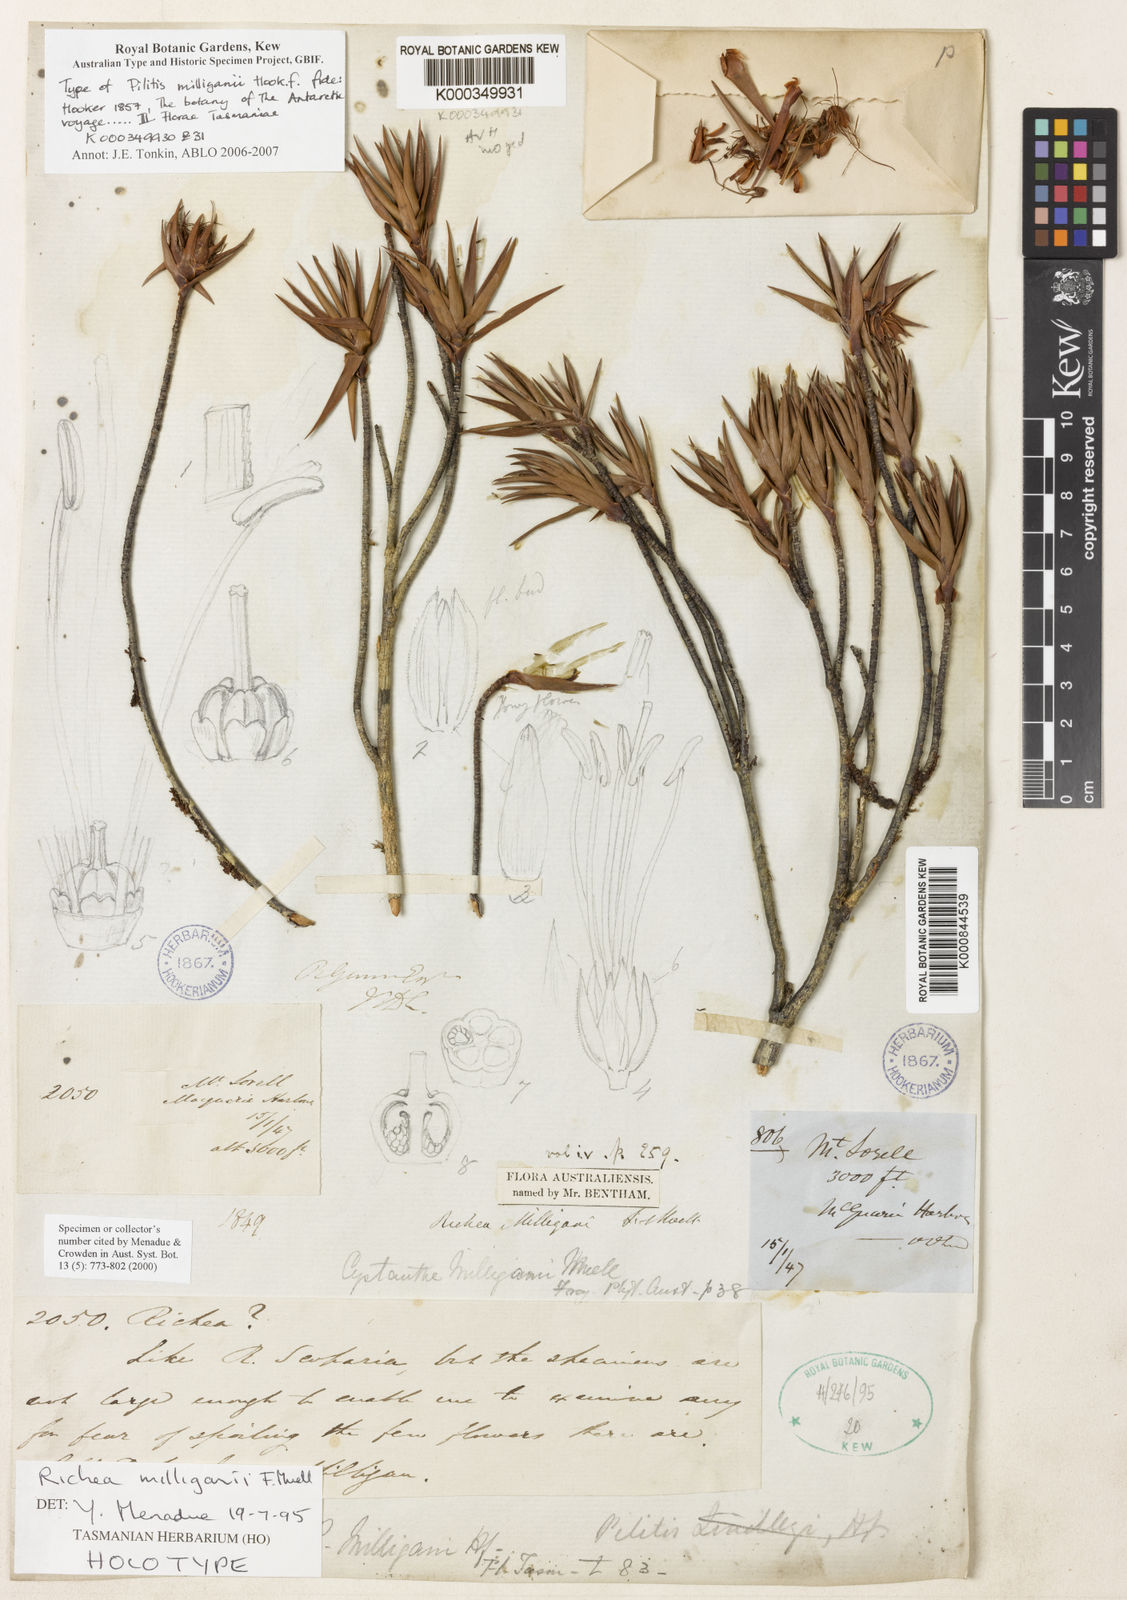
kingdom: Plantae
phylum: Tracheophyta
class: Magnoliopsida
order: Ericales
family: Ericaceae
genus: Dracophyllum
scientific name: Dracophyllum tasmanicum
